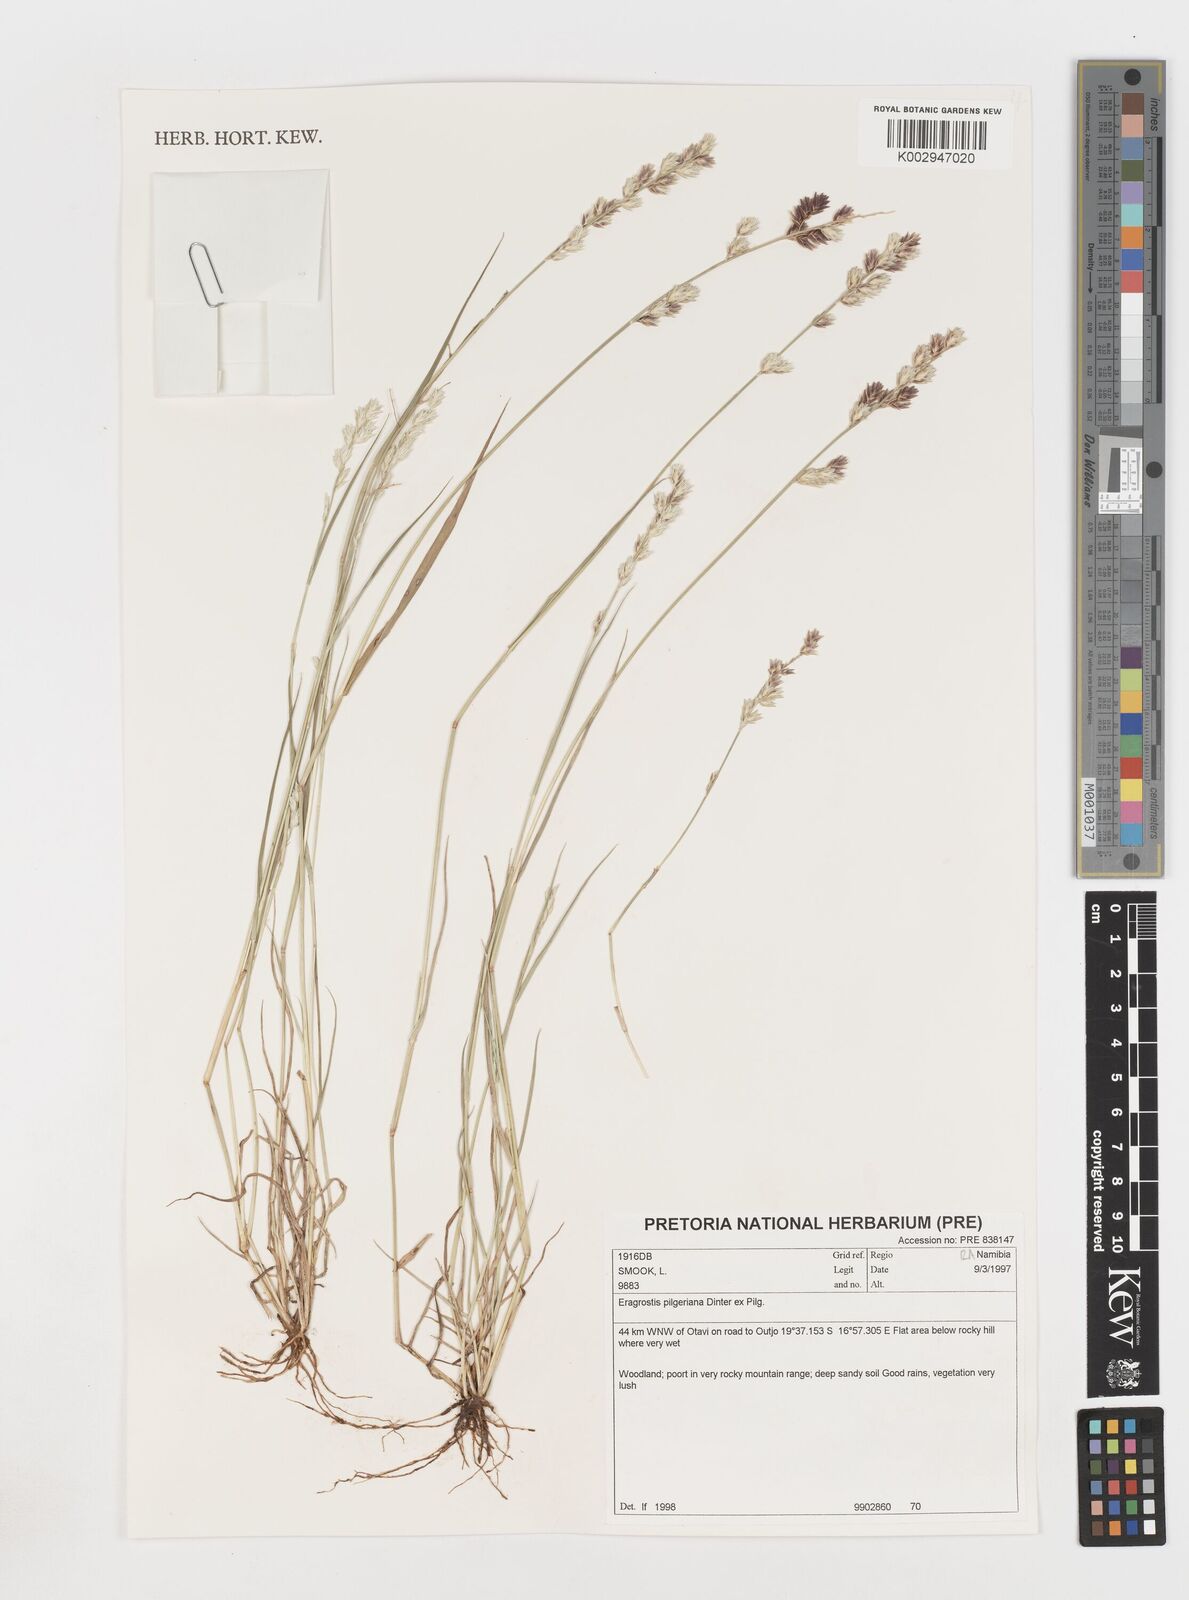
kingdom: Plantae
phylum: Tracheophyta
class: Liliopsida
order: Poales
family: Poaceae
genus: Eragrostis
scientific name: Eragrostis pilgeriana
